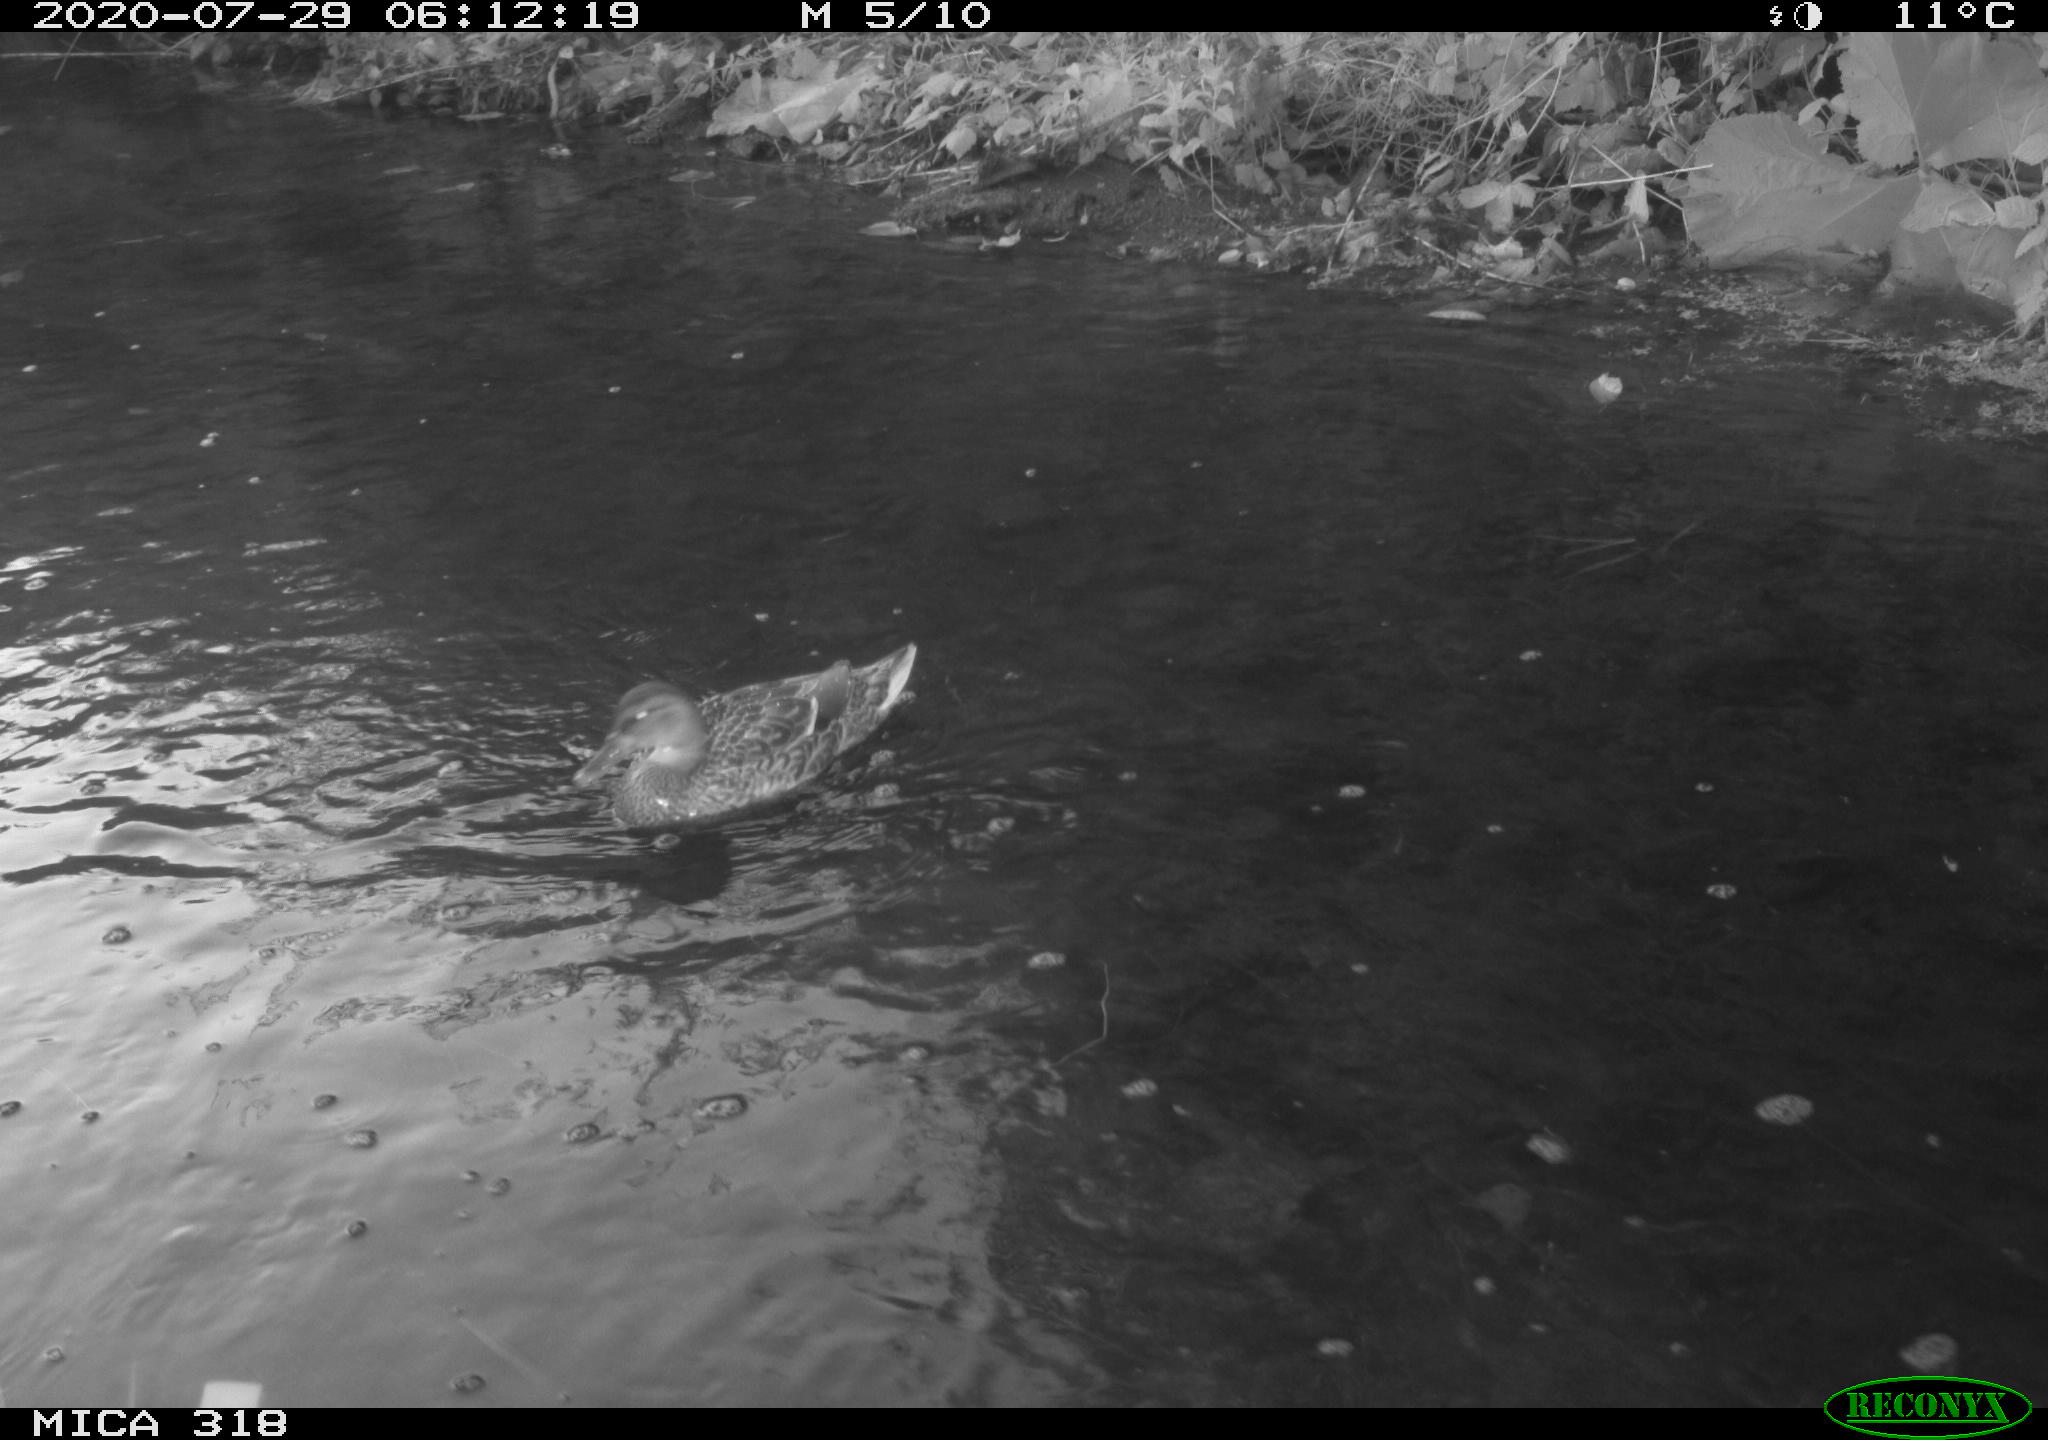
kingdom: Animalia
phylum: Chordata
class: Aves
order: Anseriformes
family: Anatidae
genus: Anas
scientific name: Anas platyrhynchos
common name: Mallard
